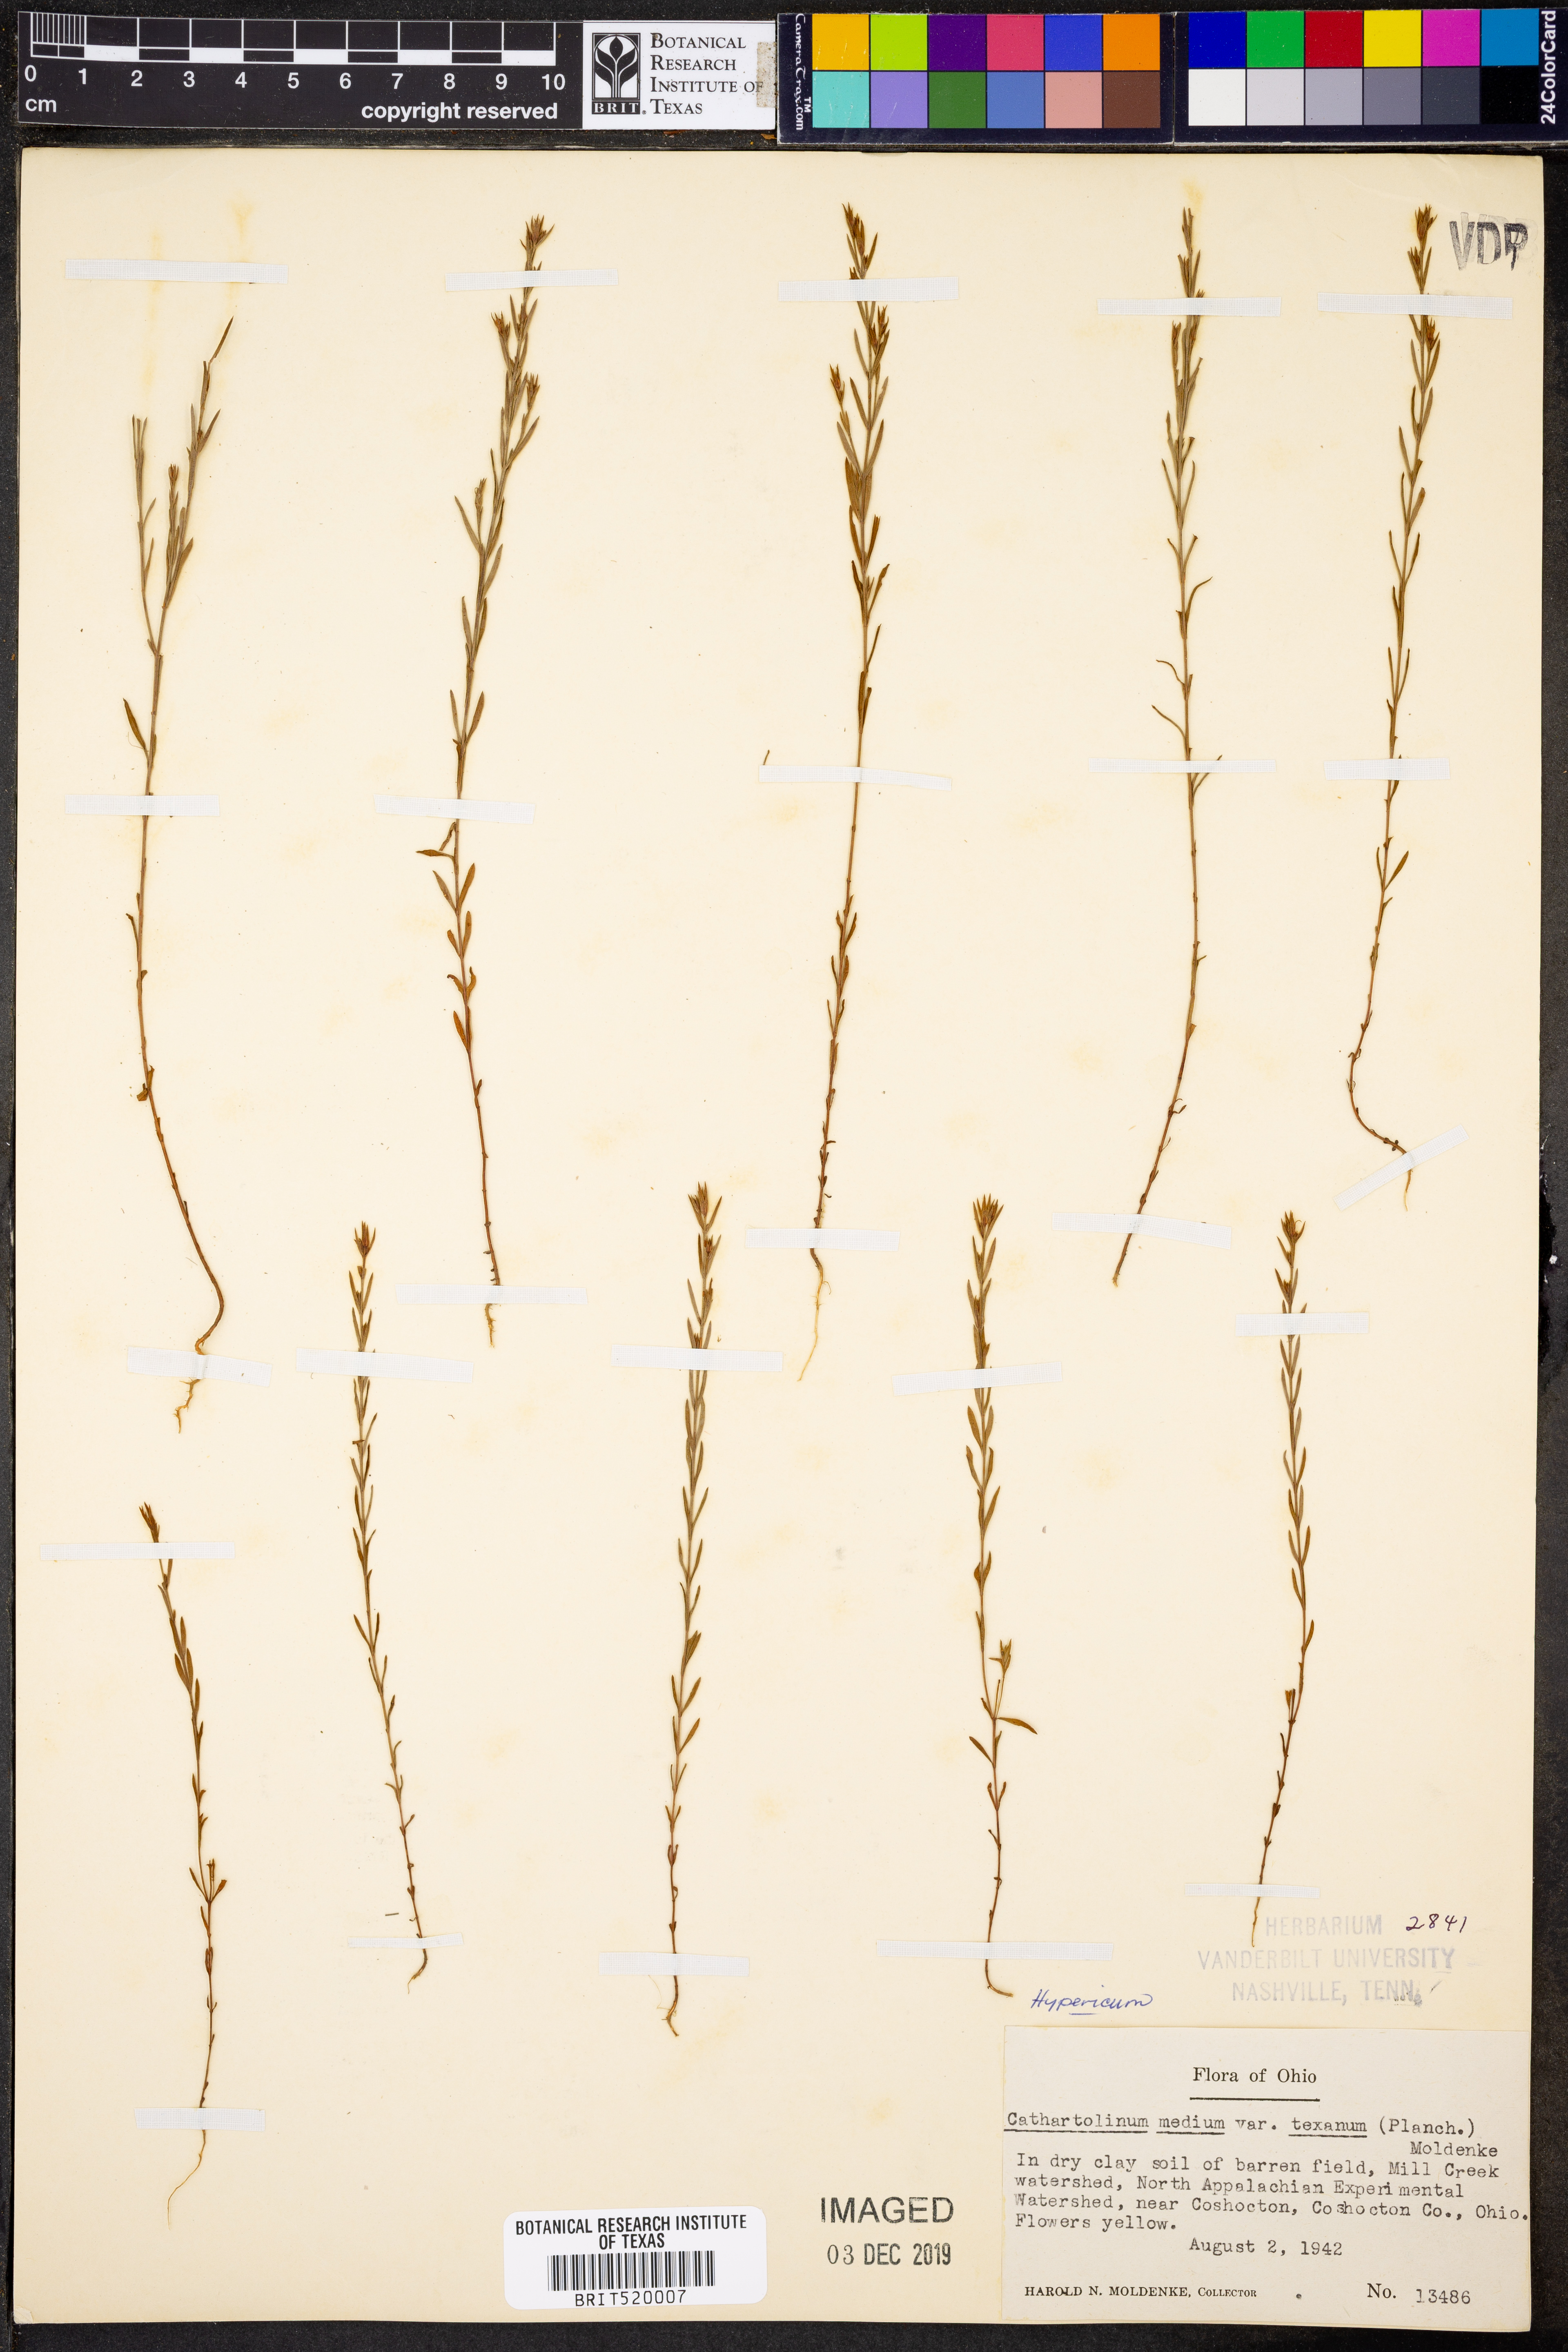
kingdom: Plantae
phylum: Tracheophyta
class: Magnoliopsida
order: Malpighiales
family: Hypericaceae
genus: Hypericum
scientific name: Hypericum
